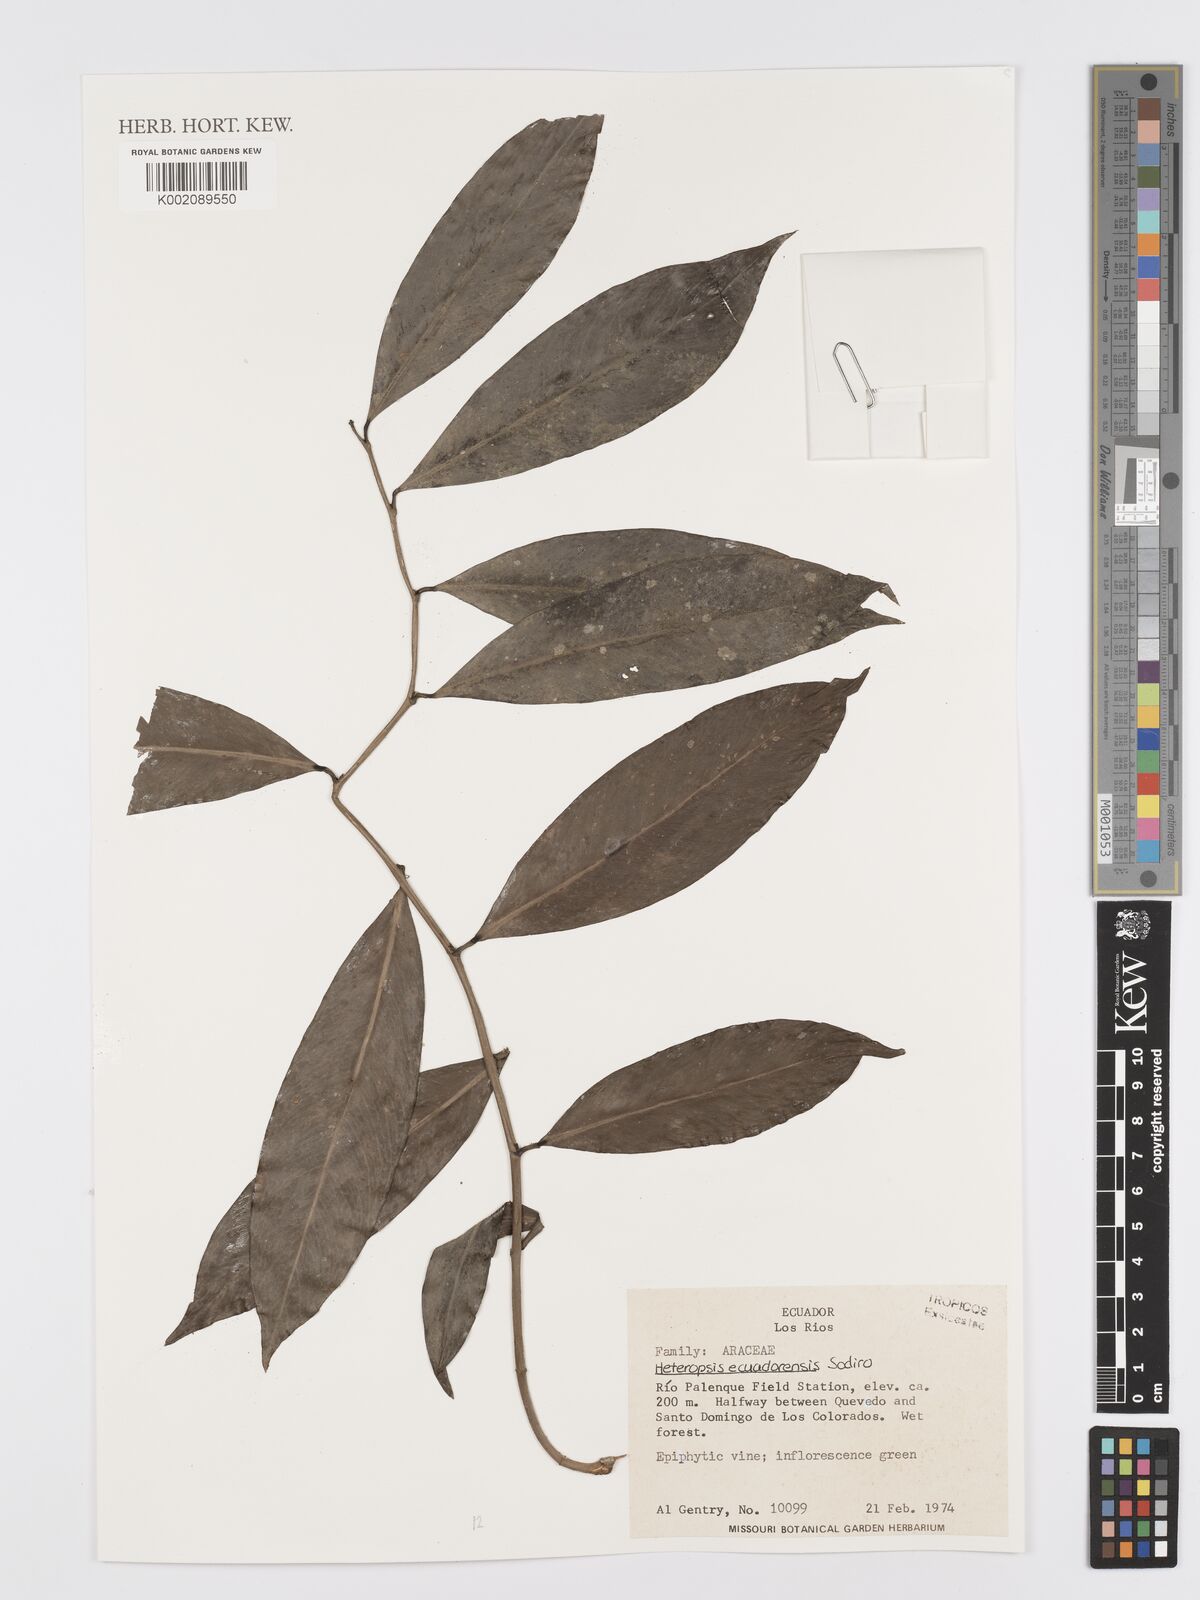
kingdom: Plantae
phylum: Tracheophyta
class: Liliopsida
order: Alismatales
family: Araceae
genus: Heteropsis
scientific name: Heteropsis ecuadorensis
